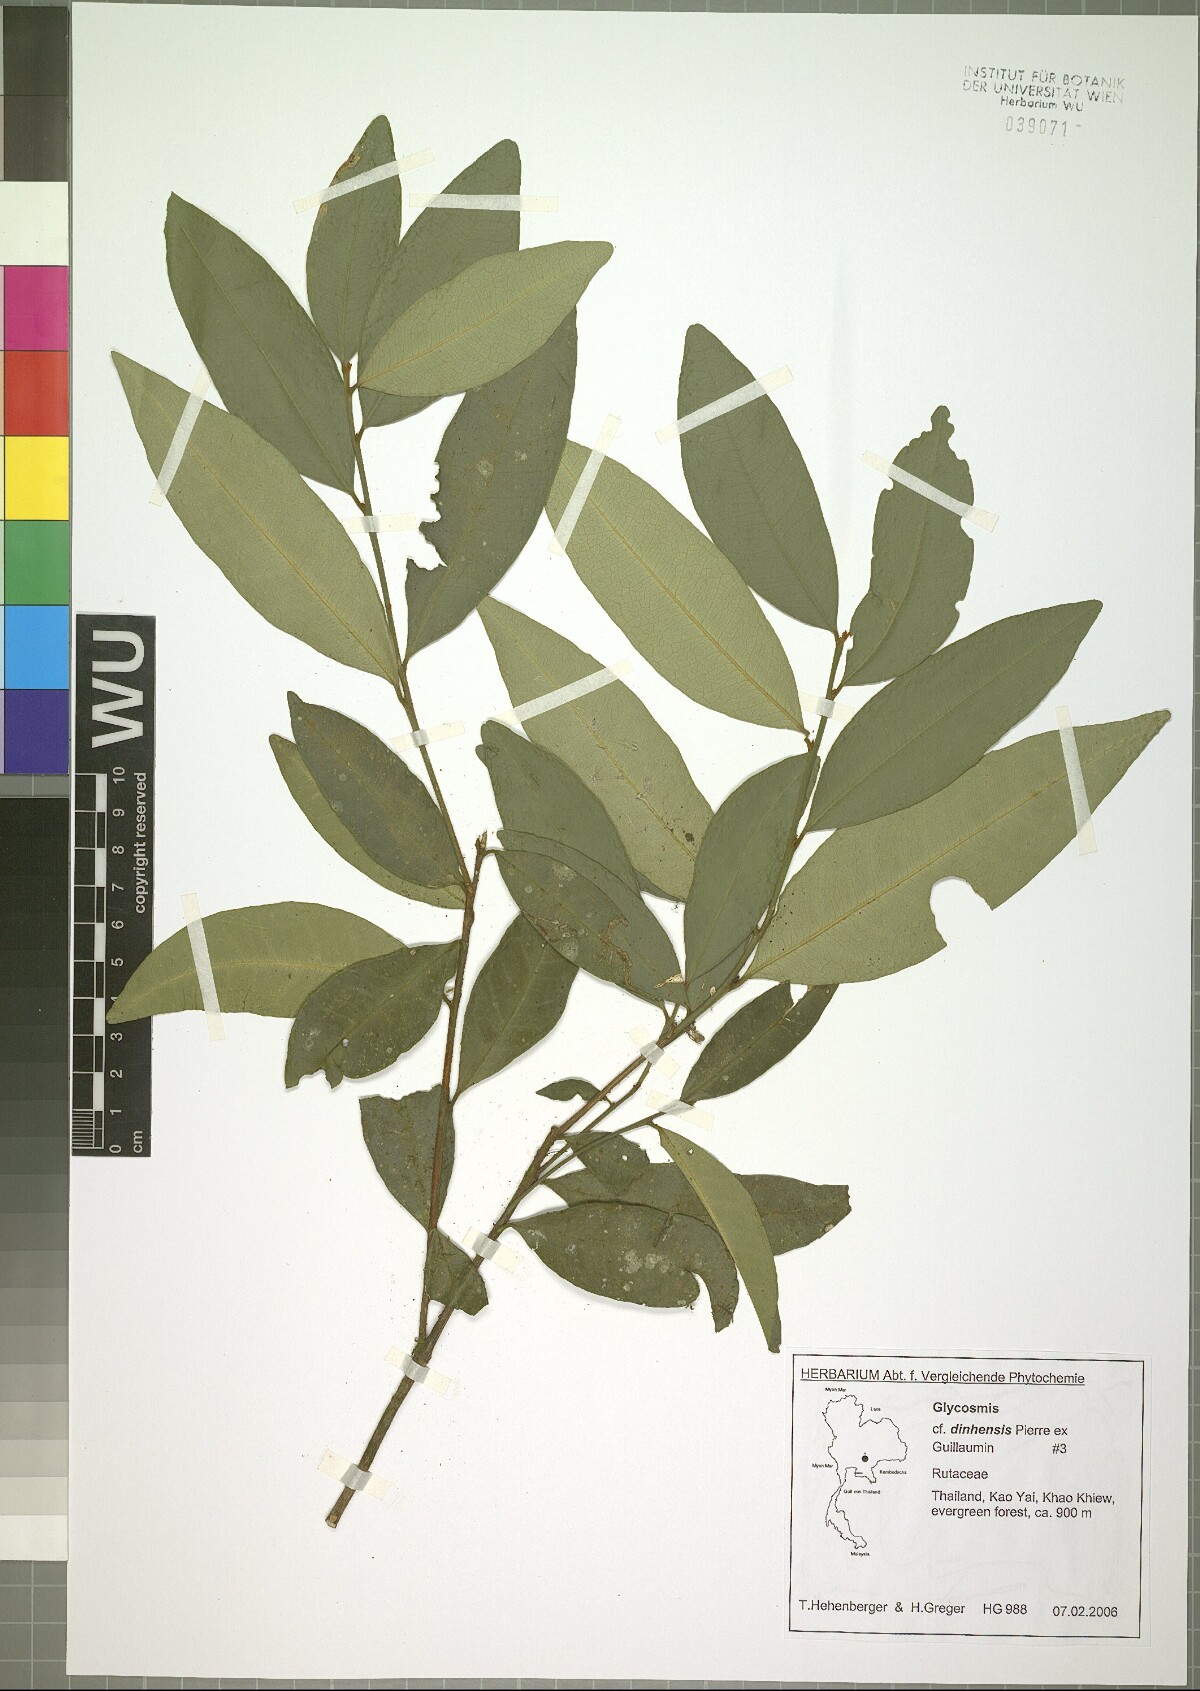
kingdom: Plantae
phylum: Tracheophyta
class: Magnoliopsida
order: Sapindales
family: Rutaceae
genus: Glycosmis
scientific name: Glycosmis dinhensis
